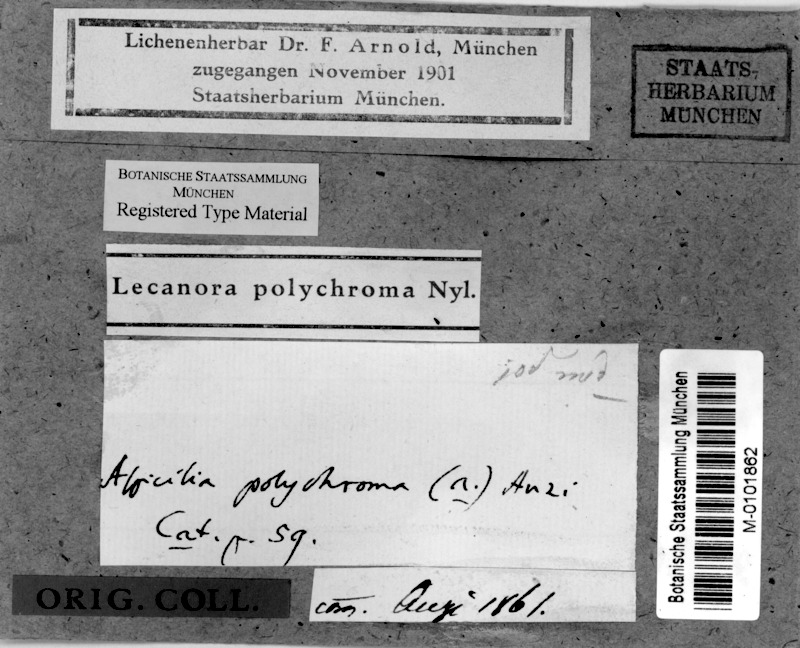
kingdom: Fungi
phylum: Ascomycota
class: Lecanoromycetes
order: Pertusariales
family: Megasporaceae
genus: Aspicilia
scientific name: Aspicilia polychroma
